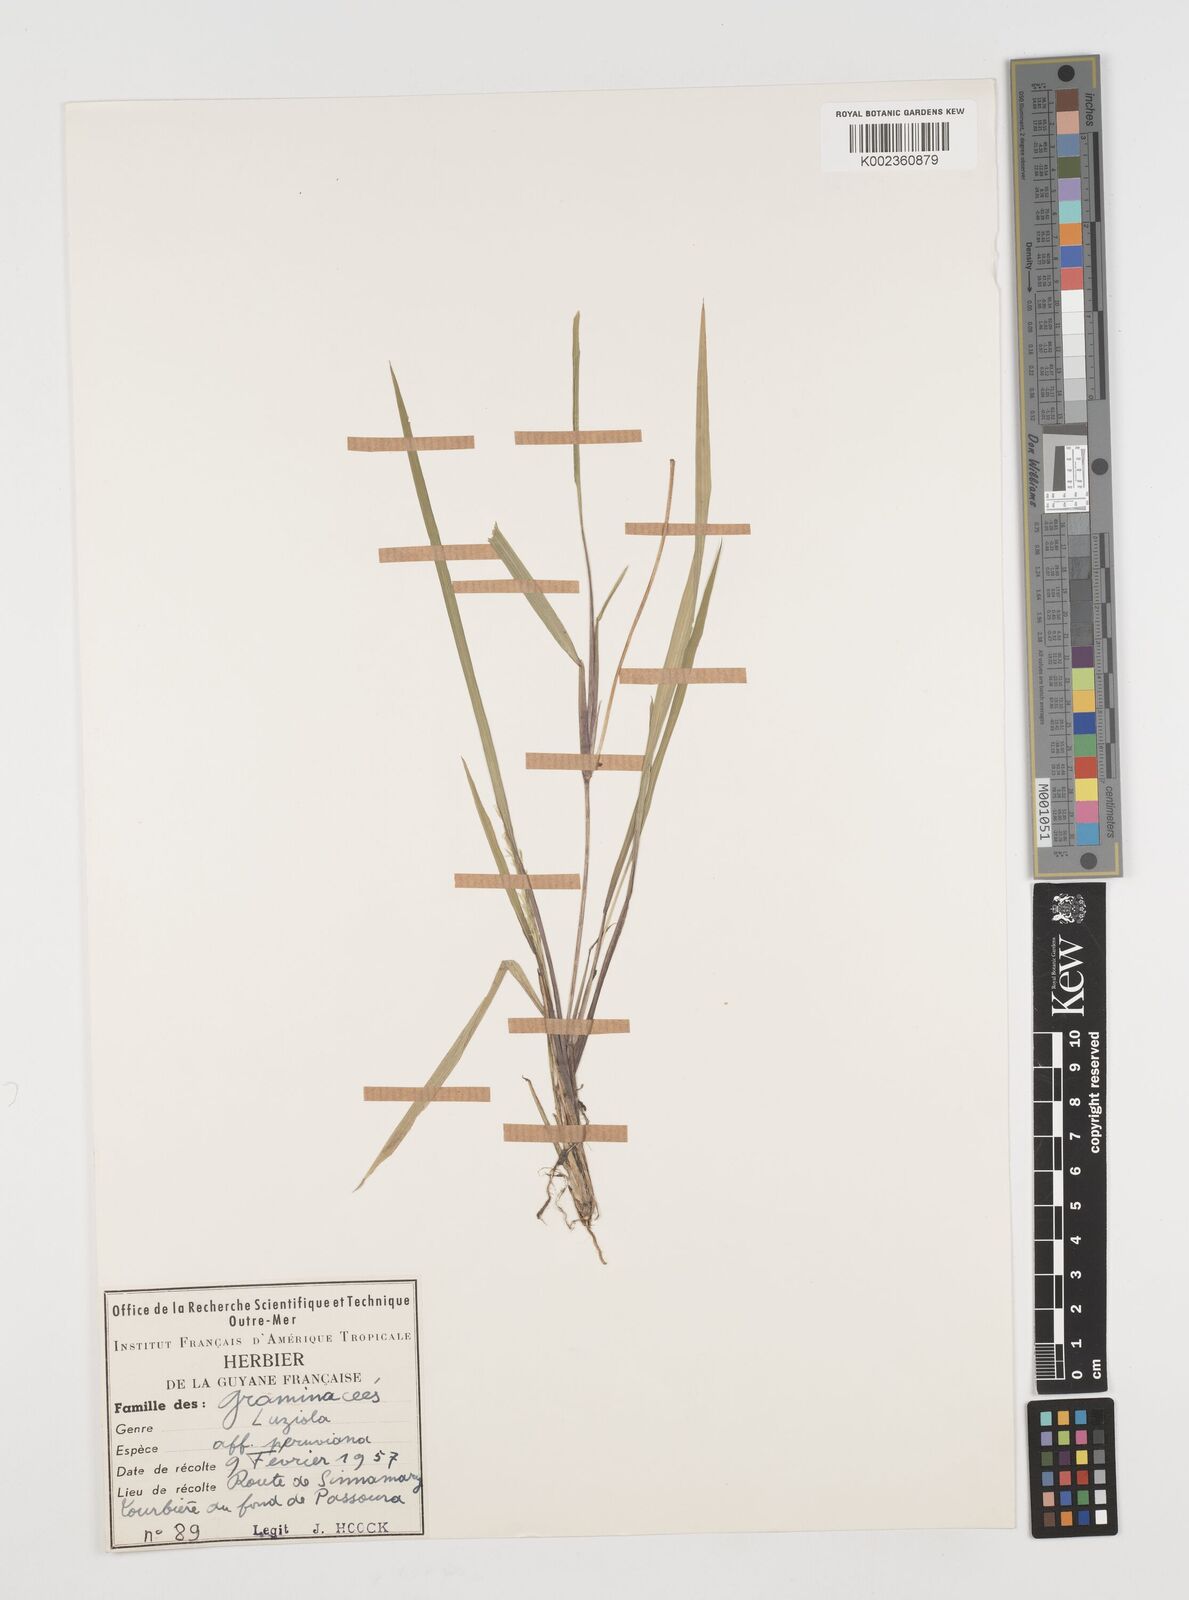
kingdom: Plantae
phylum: Tracheophyta
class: Liliopsida
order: Poales
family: Poaceae
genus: Luziola
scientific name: Luziola bahiensis
